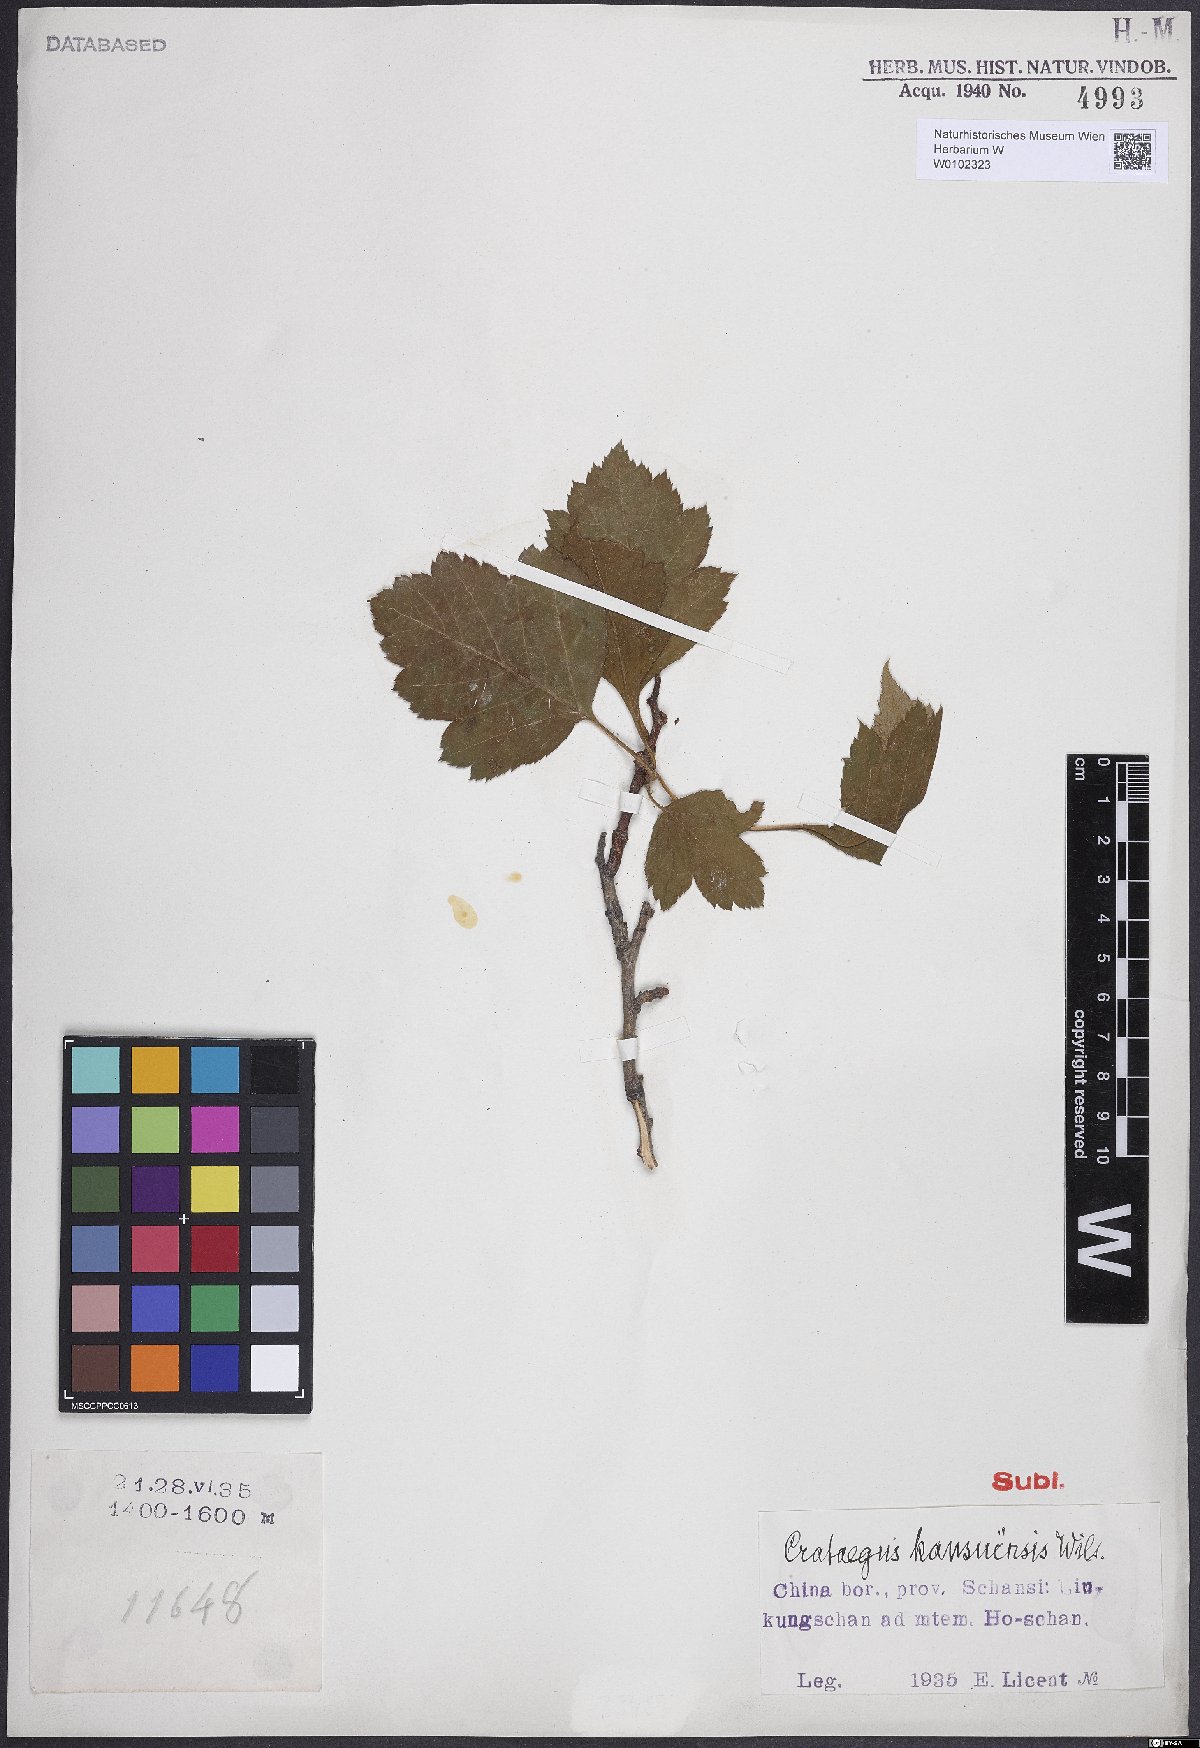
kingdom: Plantae
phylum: Tracheophyta
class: Magnoliopsida
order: Rosales
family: Rosaceae
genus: Crataegus
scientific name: Crataegus kansuensis
